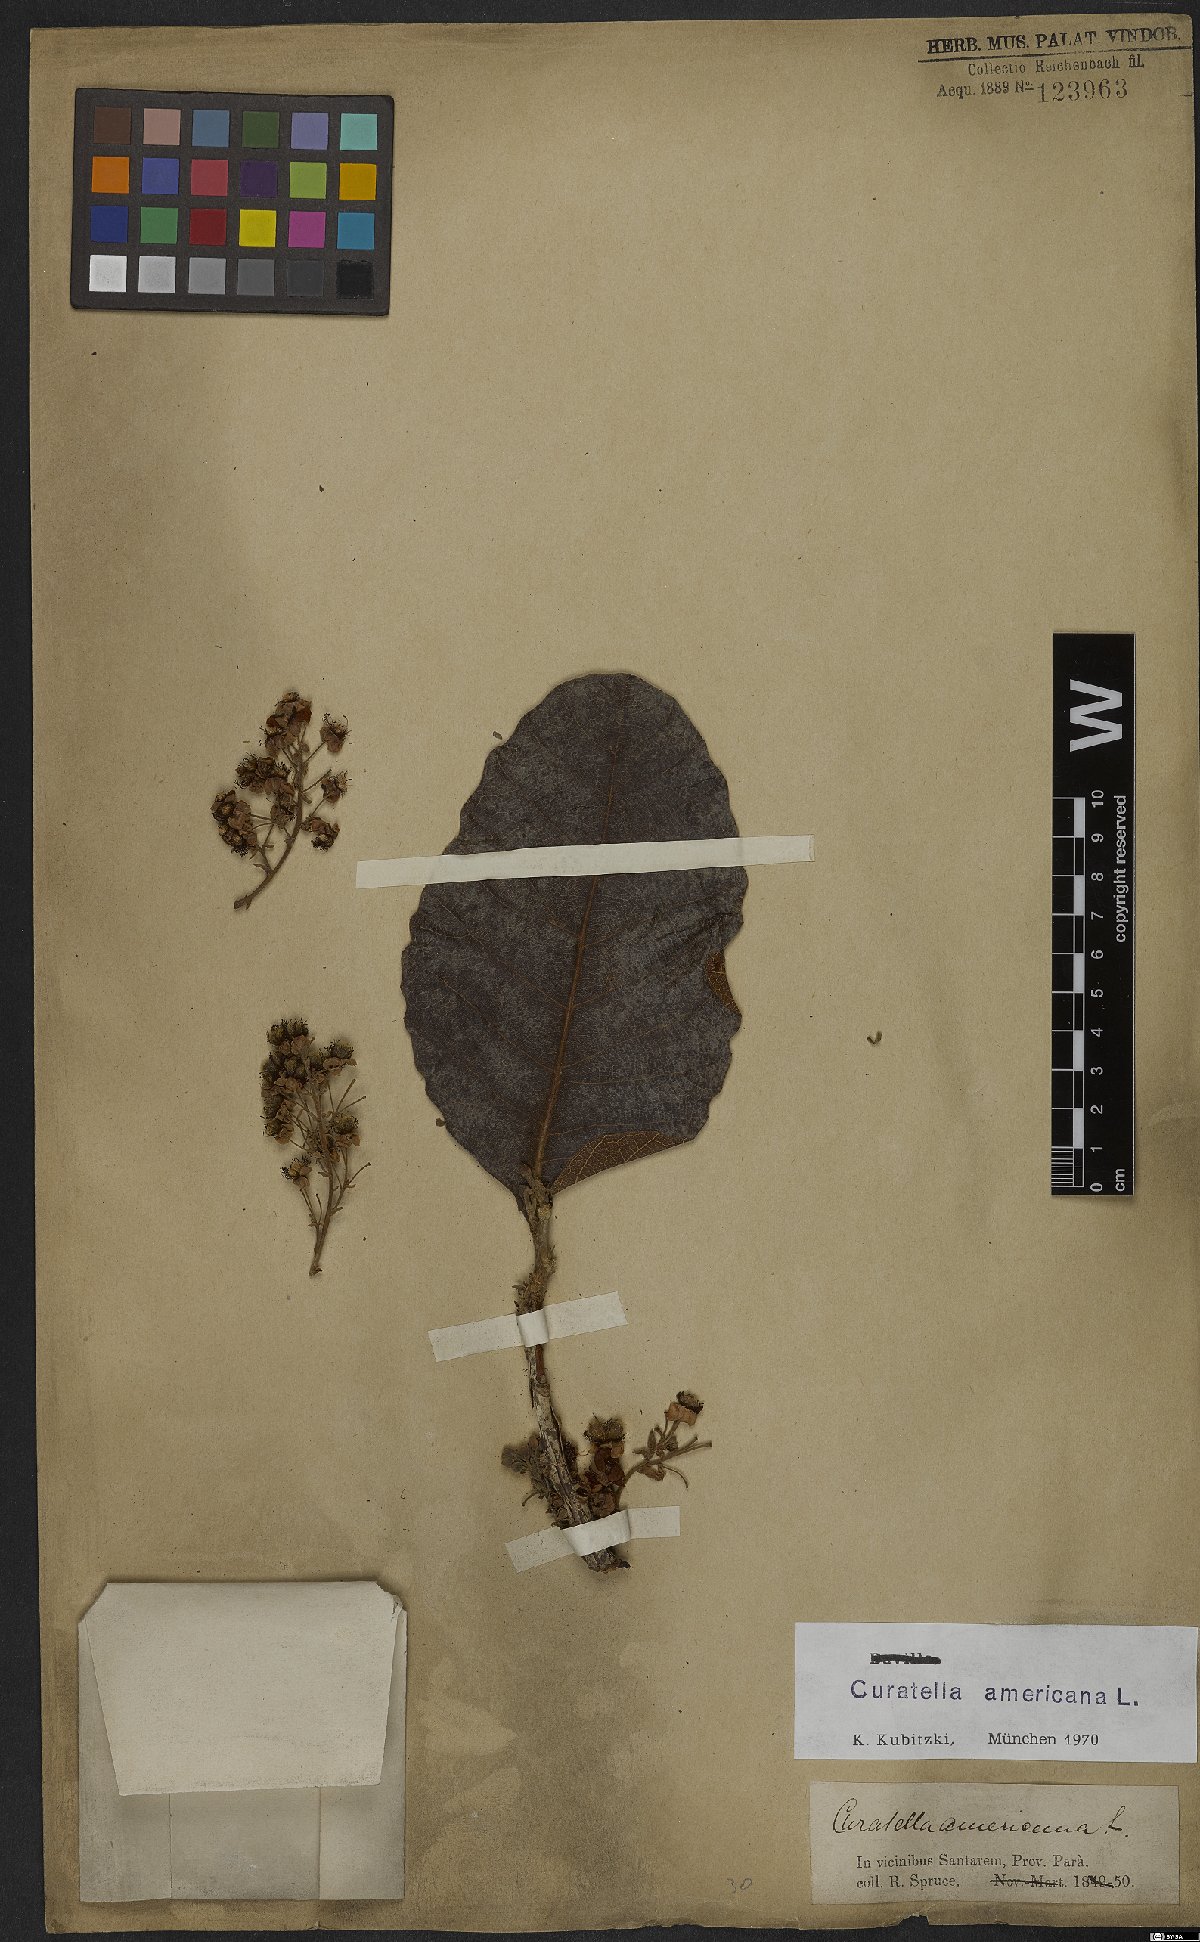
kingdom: Plantae
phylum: Tracheophyta
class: Magnoliopsida
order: Dilleniales
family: Dilleniaceae
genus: Curatella
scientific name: Curatella americana
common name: Sandpaper tree
